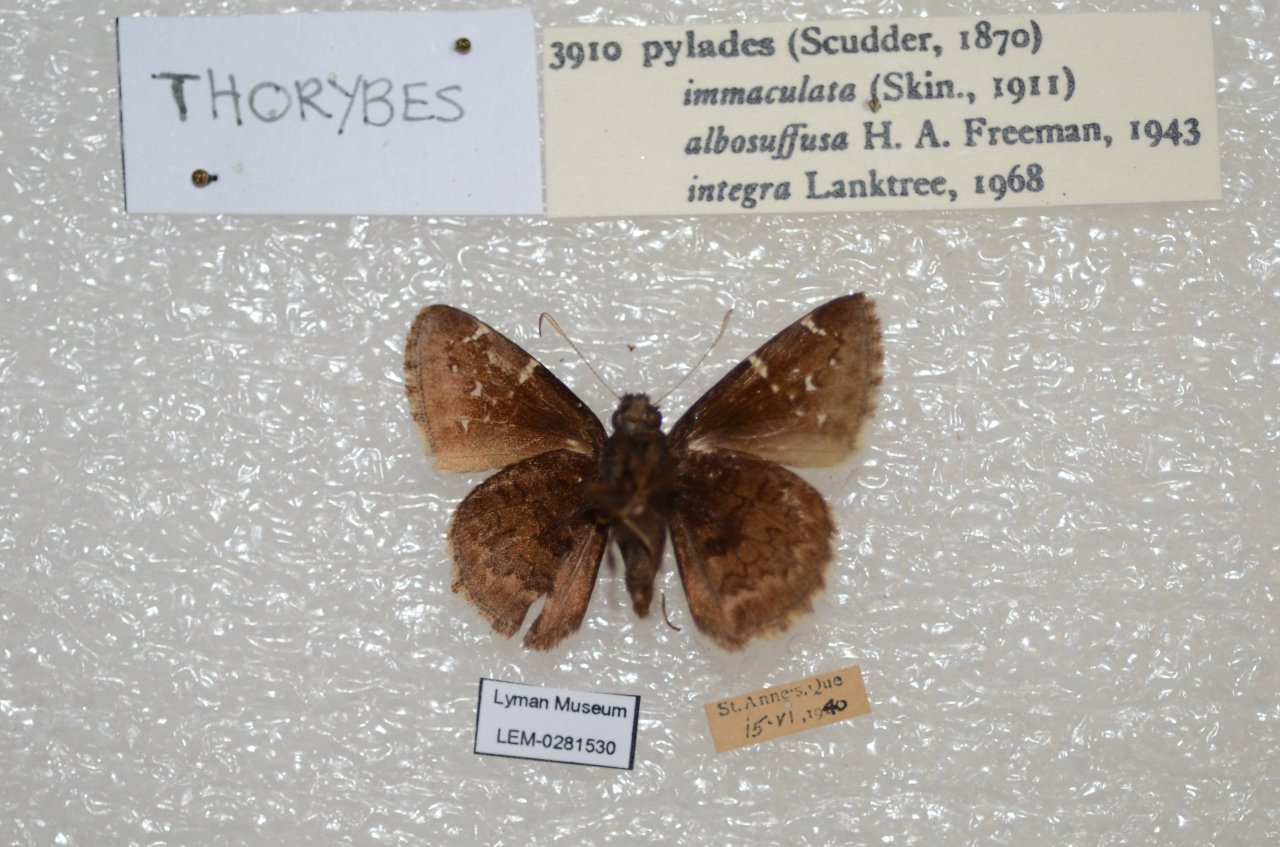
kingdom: Animalia
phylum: Arthropoda
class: Insecta
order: Lepidoptera
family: Hesperiidae
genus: Autochton
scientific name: Autochton
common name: Northern Cloudywing
